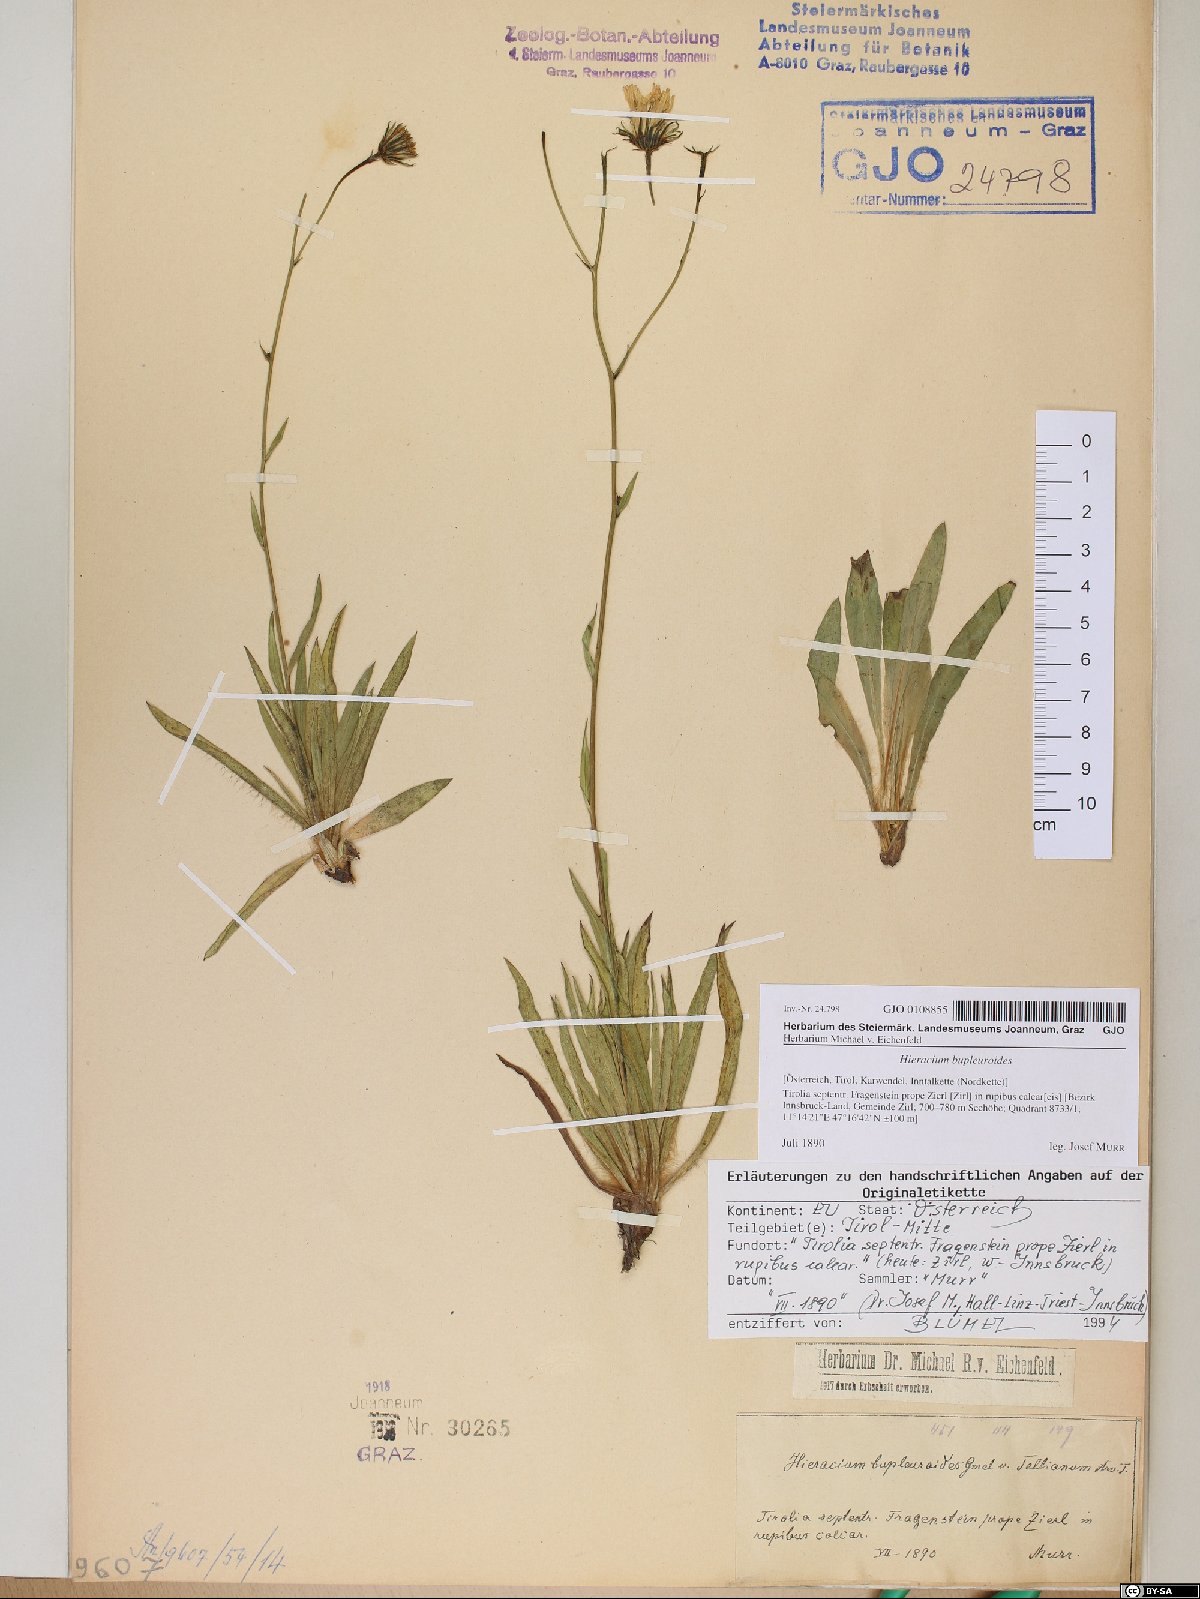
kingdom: Plantae
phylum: Tracheophyta
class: Magnoliopsida
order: Asterales
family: Asteraceae
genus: Hieracium
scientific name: Hieracium bupleuroides
